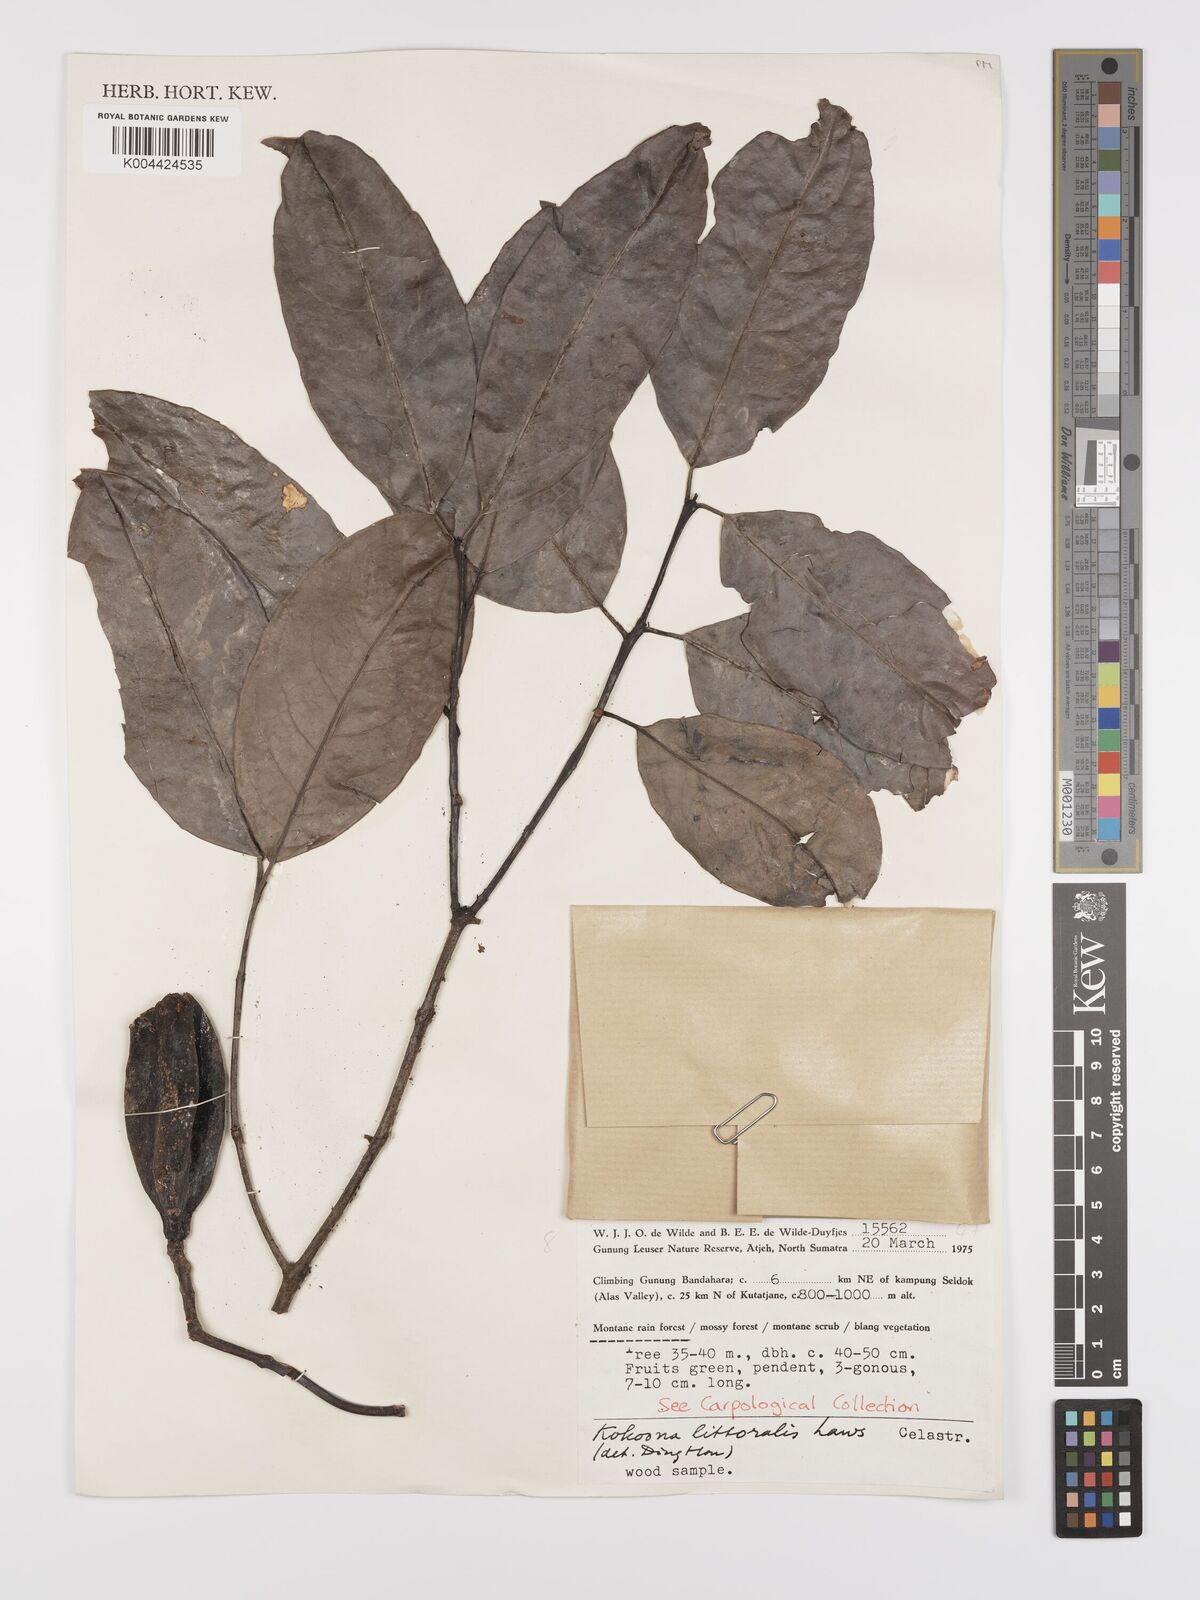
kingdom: Plantae
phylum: Tracheophyta
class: Magnoliopsida
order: Celastrales
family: Celastraceae
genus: Kokoona
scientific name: Kokoona littoralis
